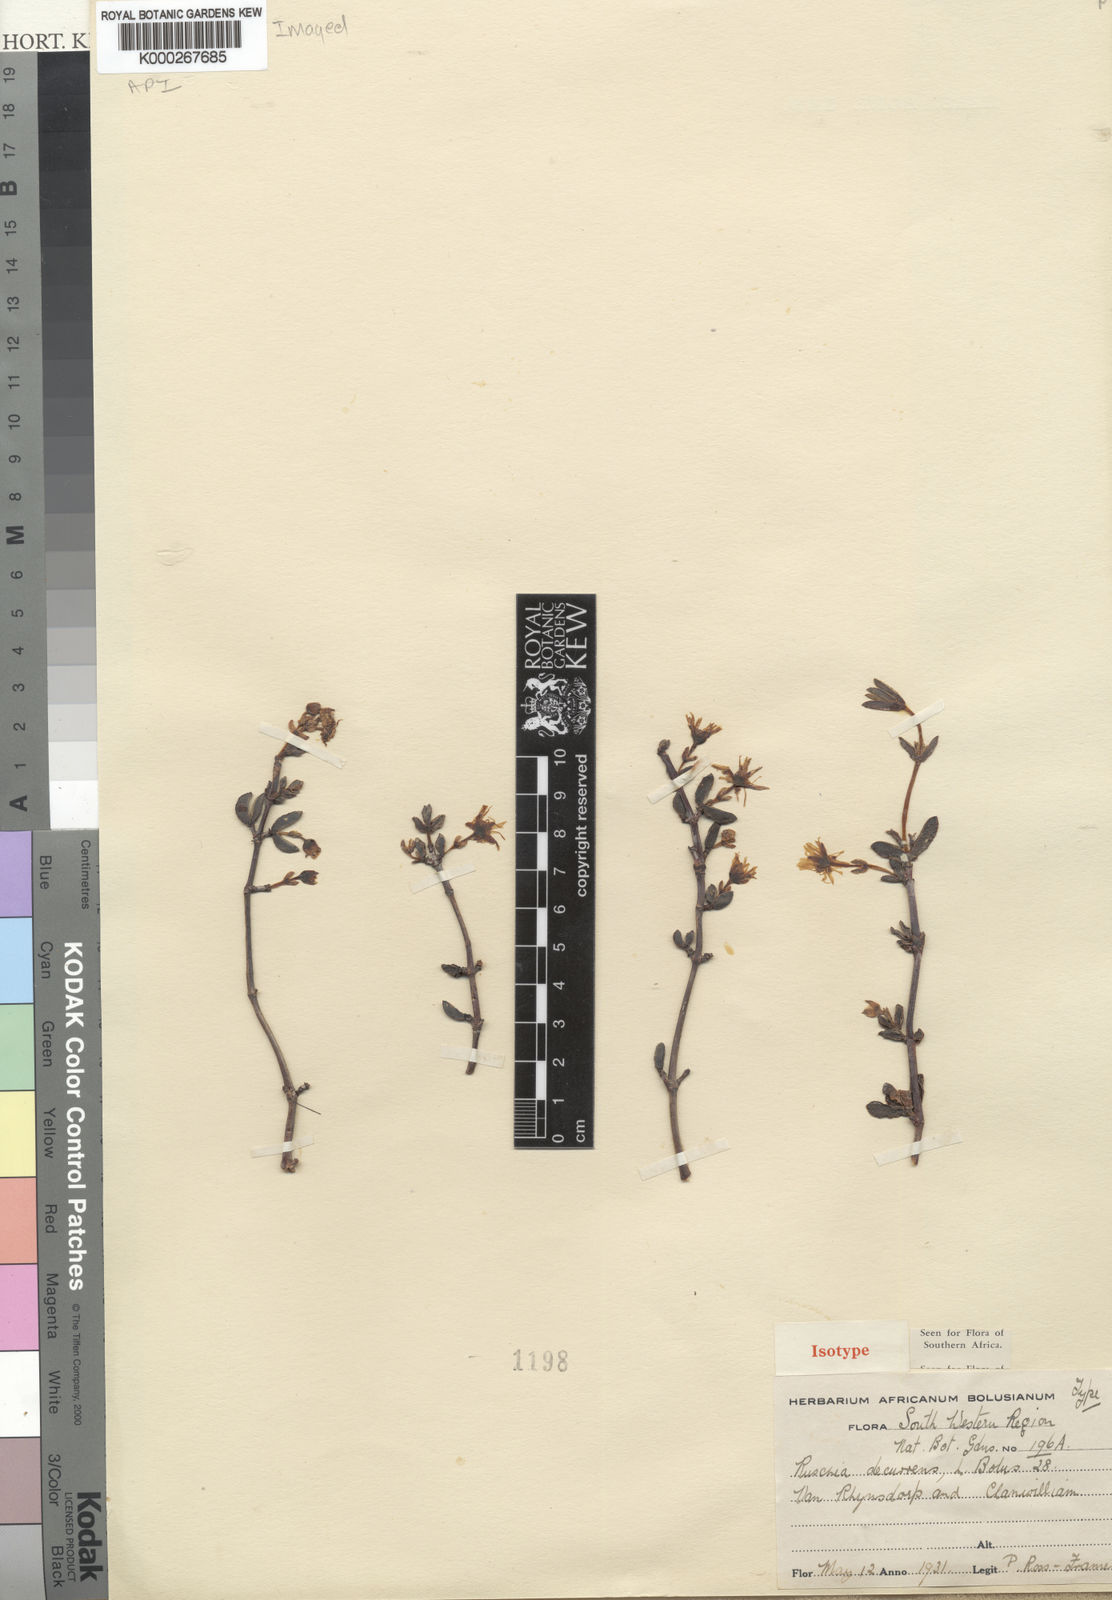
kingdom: Plantae
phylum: Tracheophyta
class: Magnoliopsida
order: Caryophyllales
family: Aizoaceae
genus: Ruschia
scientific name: Ruschia decurrens
